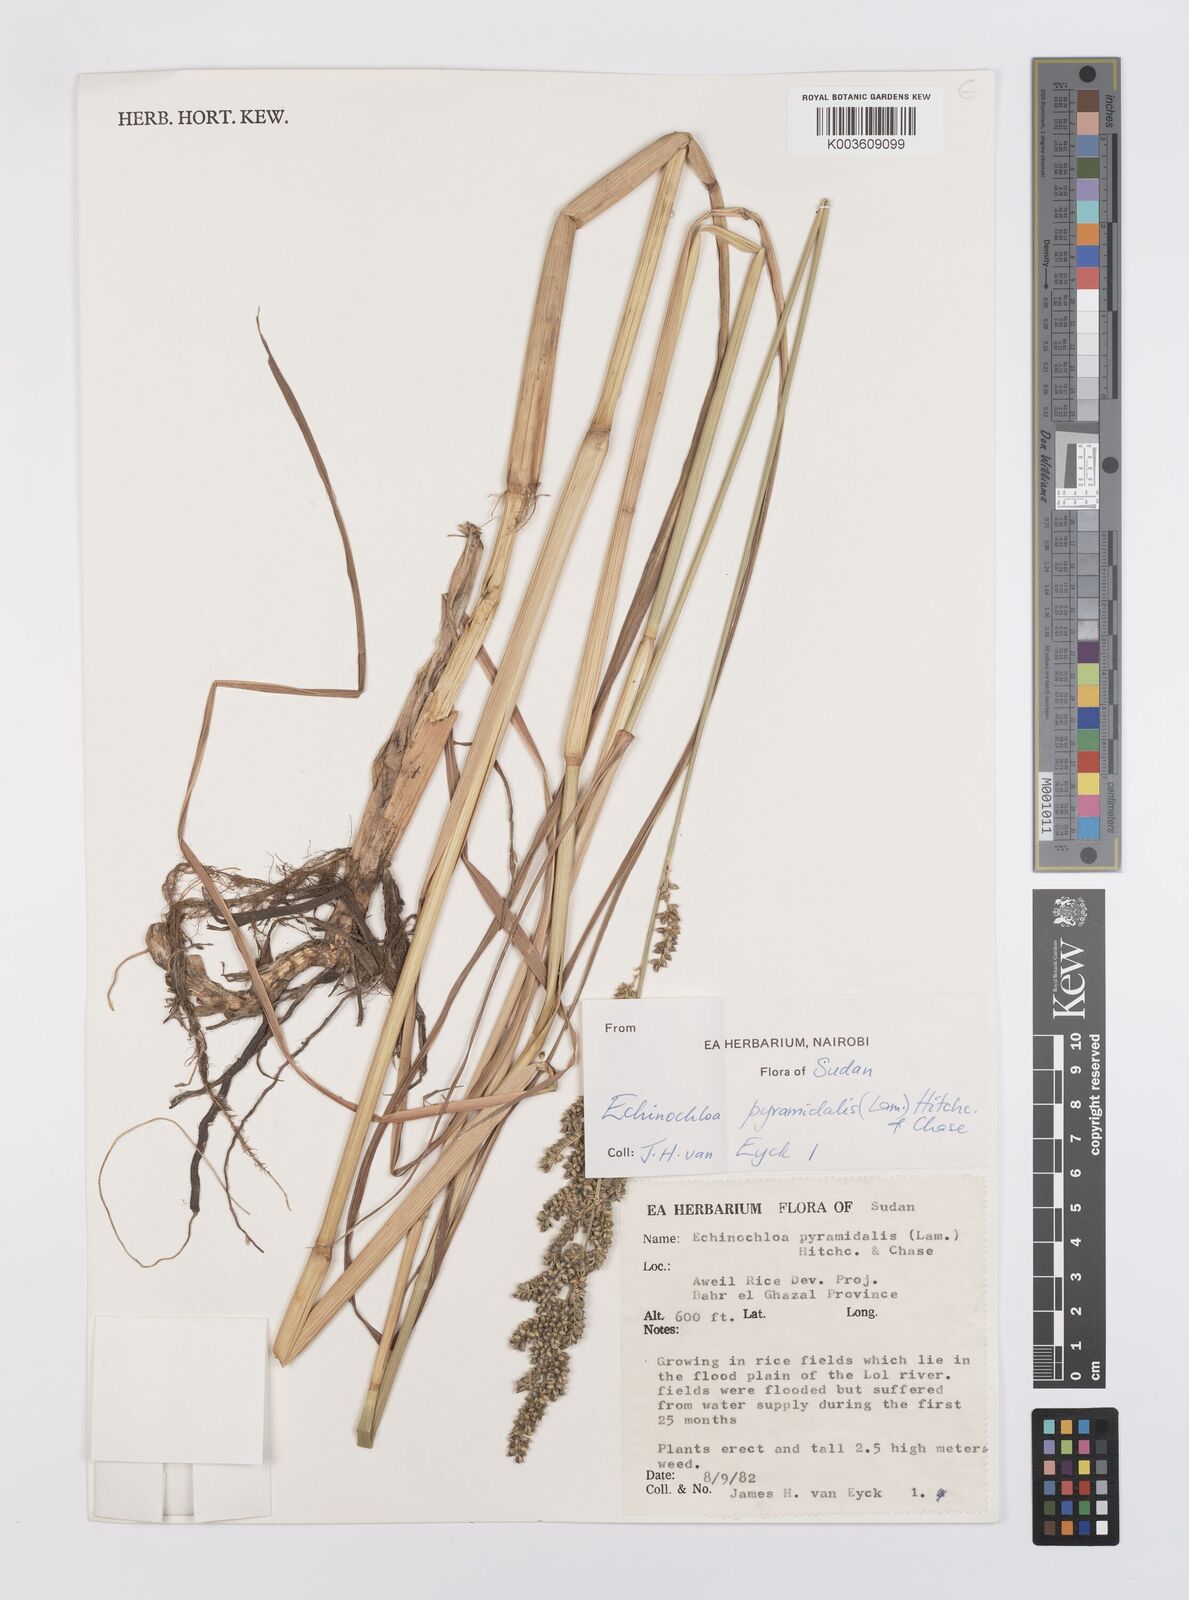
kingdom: Plantae
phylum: Tracheophyta
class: Liliopsida
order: Poales
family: Poaceae
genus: Echinochloa
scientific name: Echinochloa pyramidalis
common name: Antelope grass
